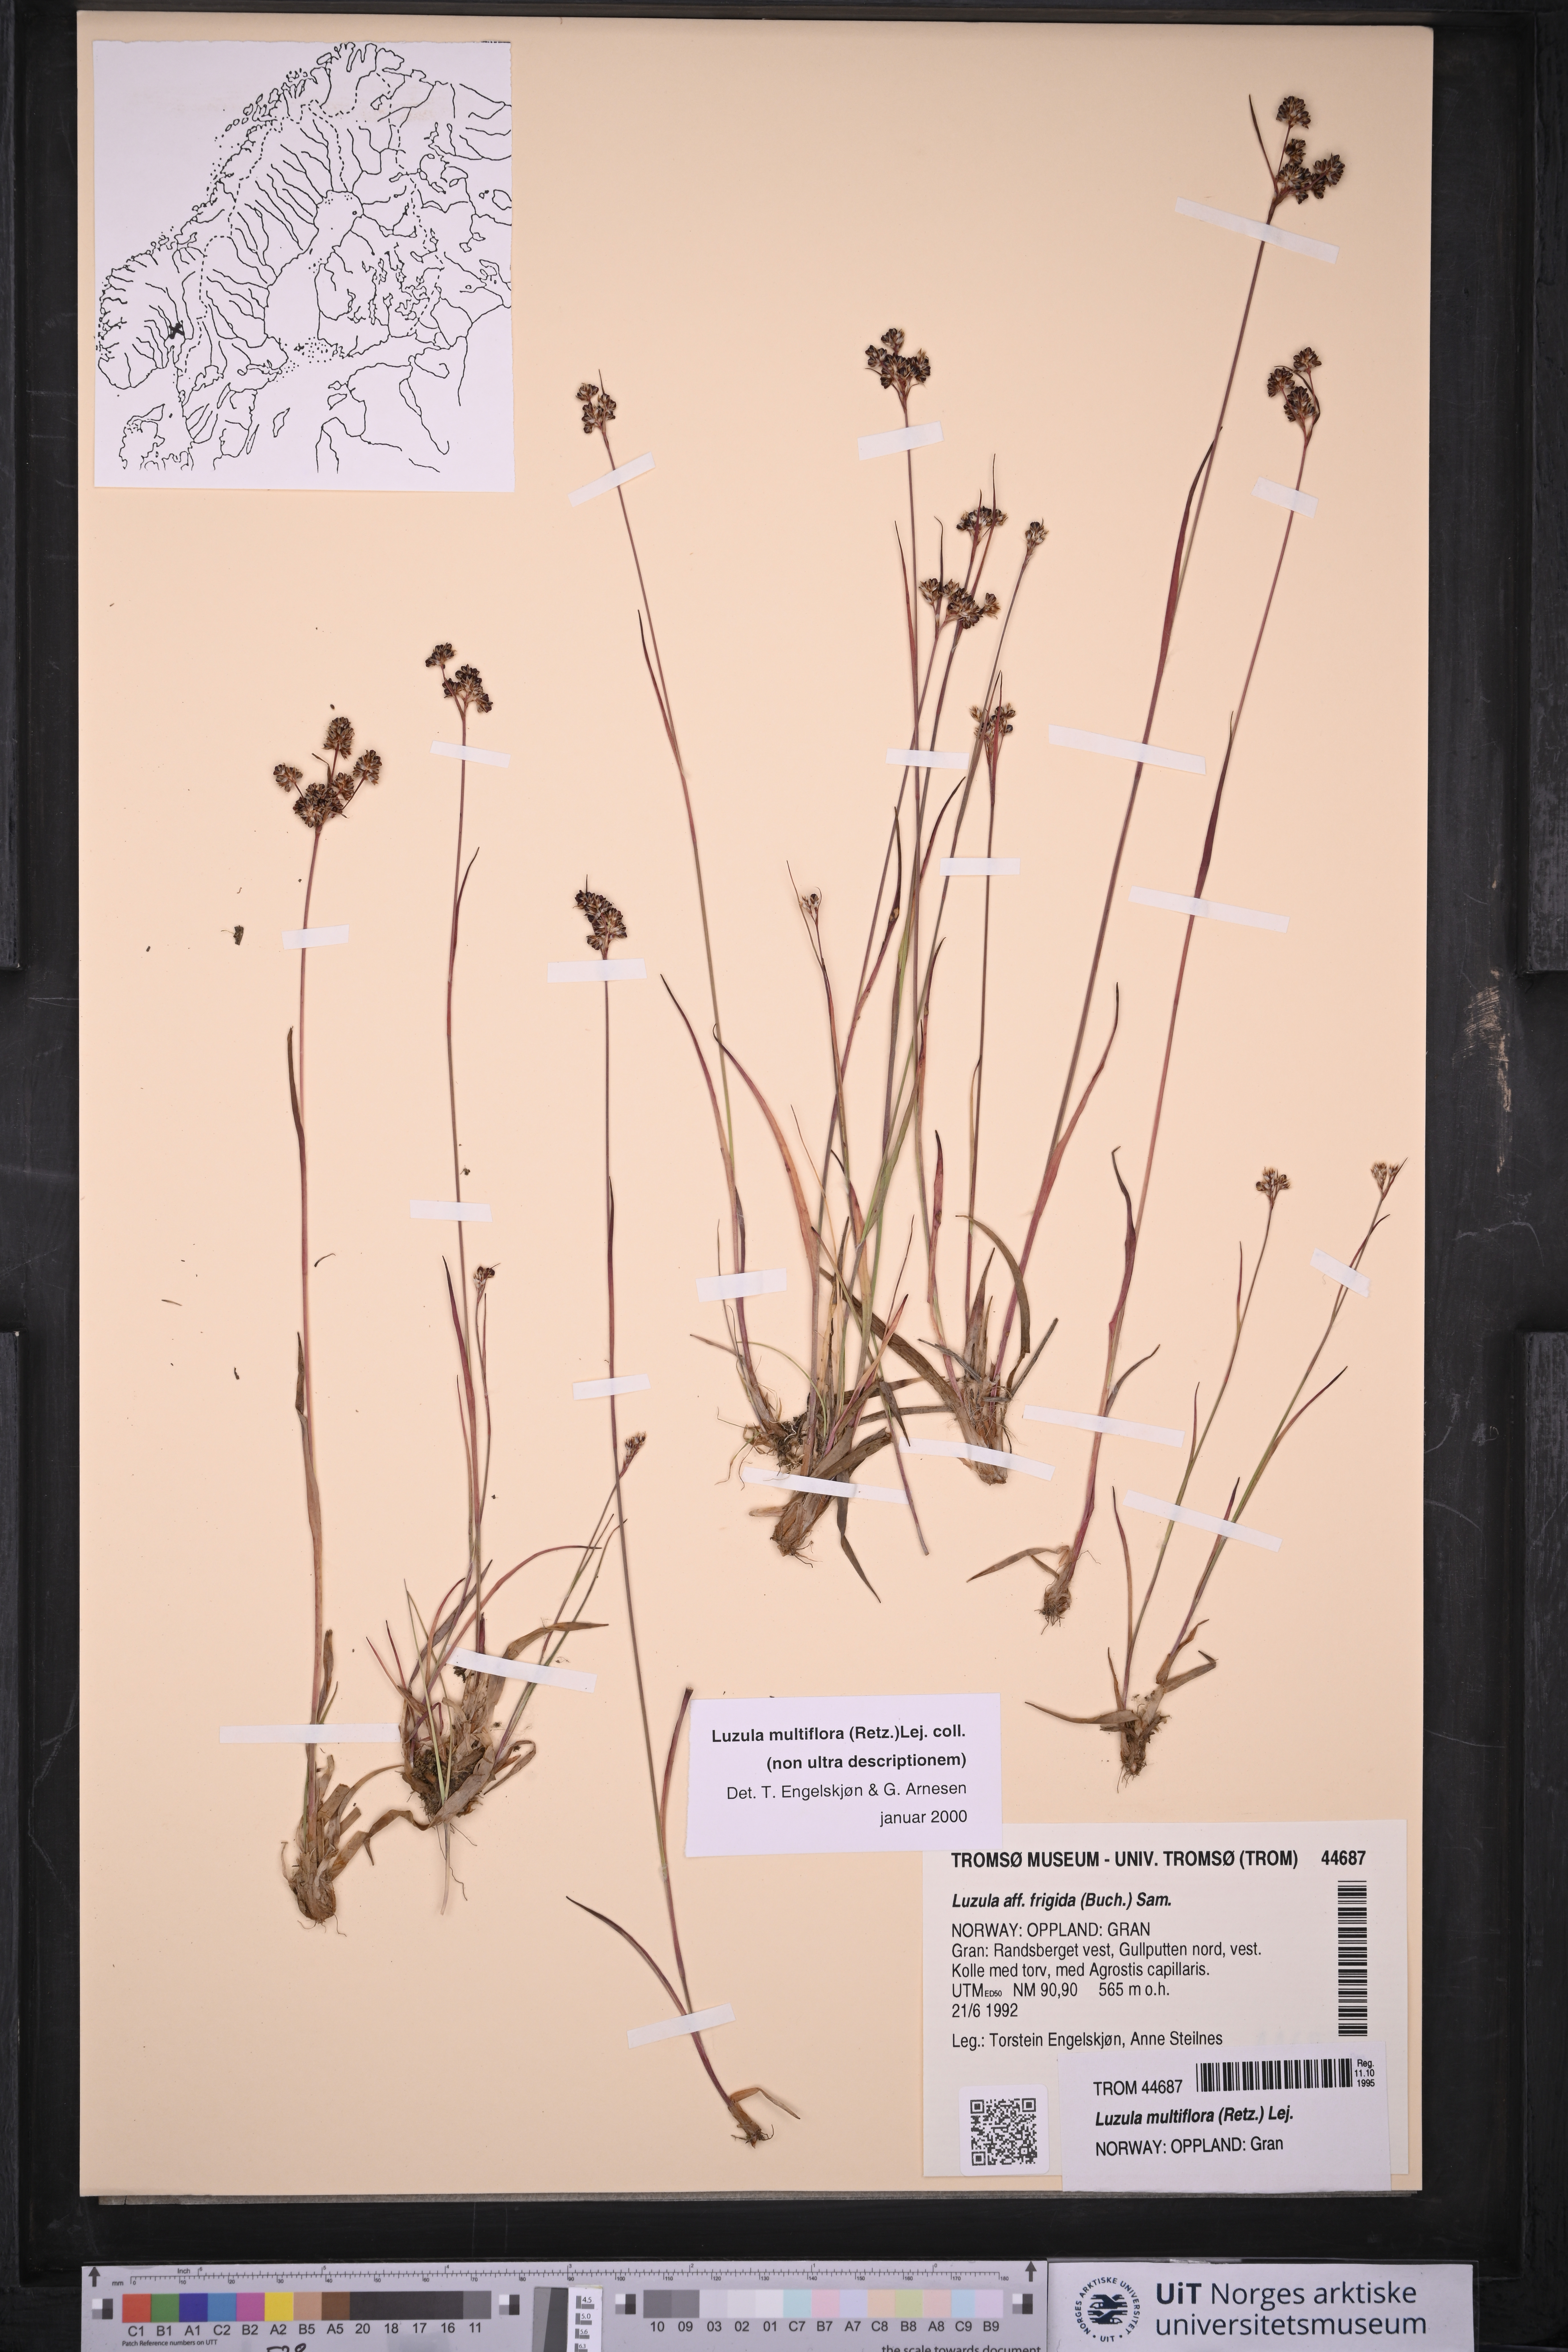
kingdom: Plantae
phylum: Tracheophyta
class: Liliopsida
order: Poales
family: Juncaceae
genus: Luzula
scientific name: Luzula multiflora
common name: Heath wood-rush
